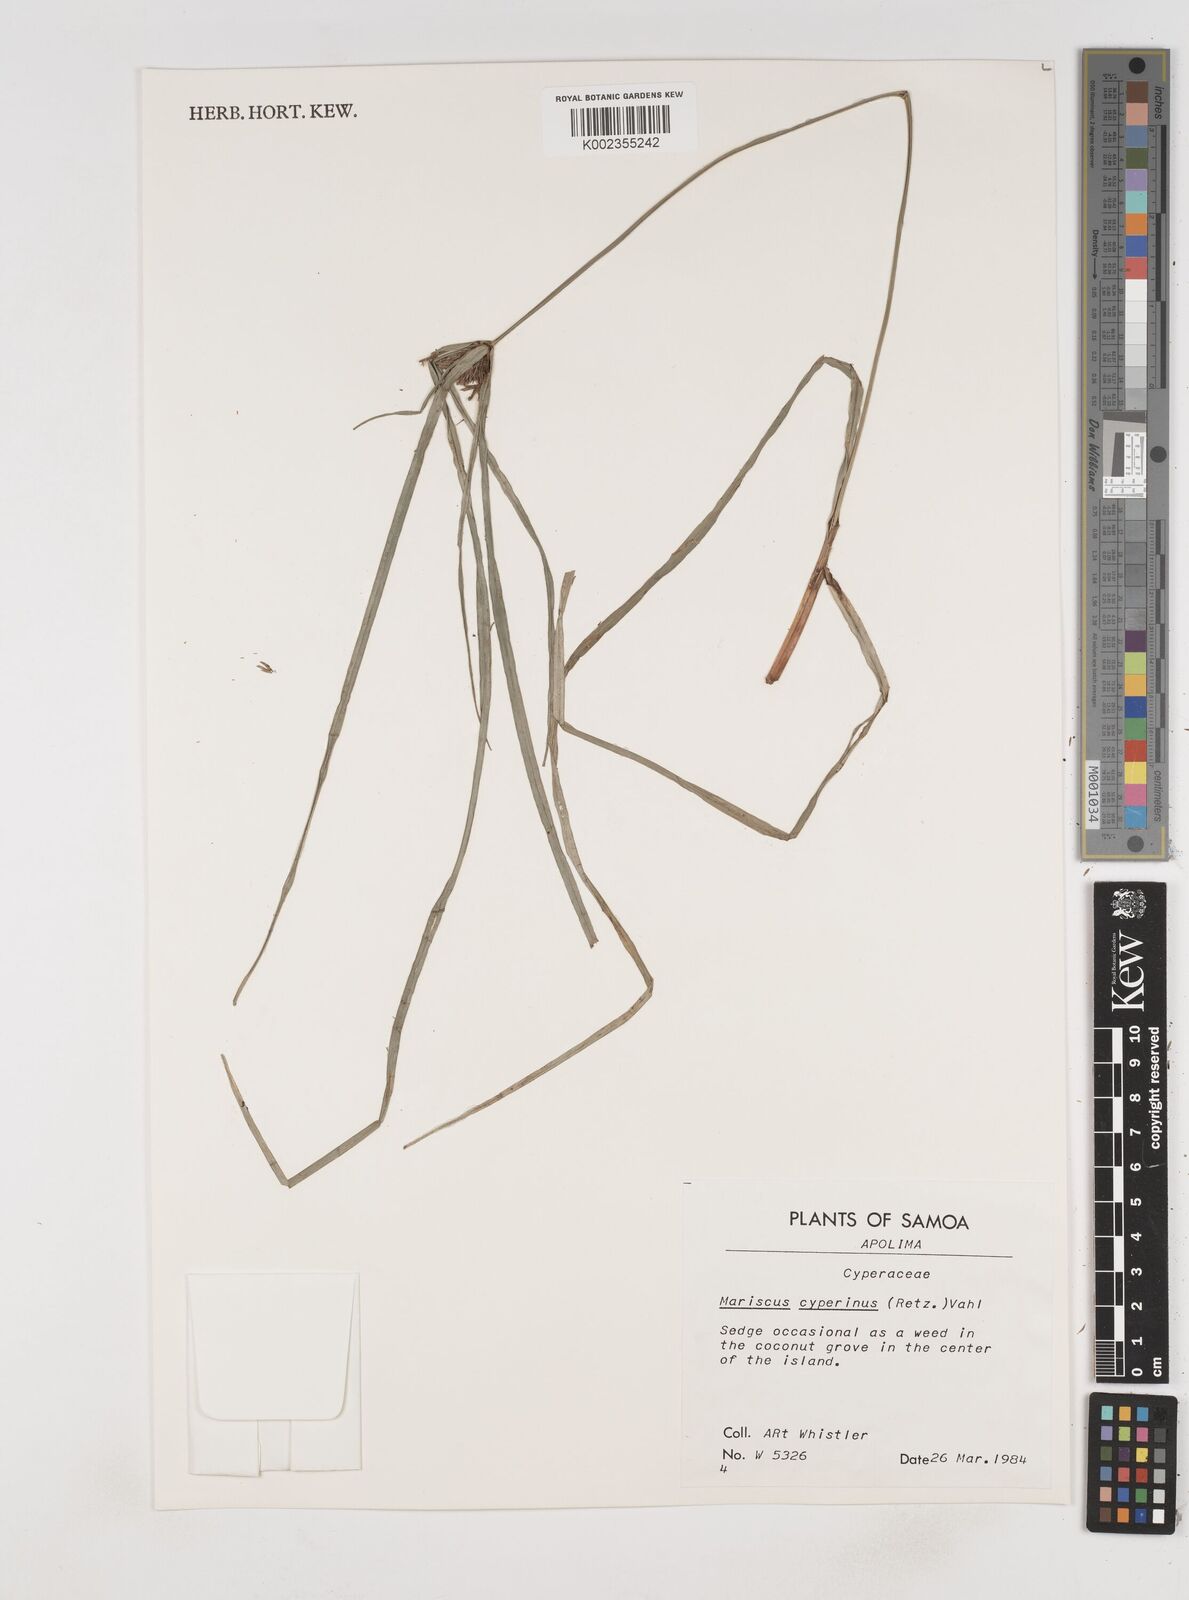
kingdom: Plantae
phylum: Tracheophyta
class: Liliopsida
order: Poales
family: Cyperaceae
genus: Cyperus
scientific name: Cyperus cyperinus
